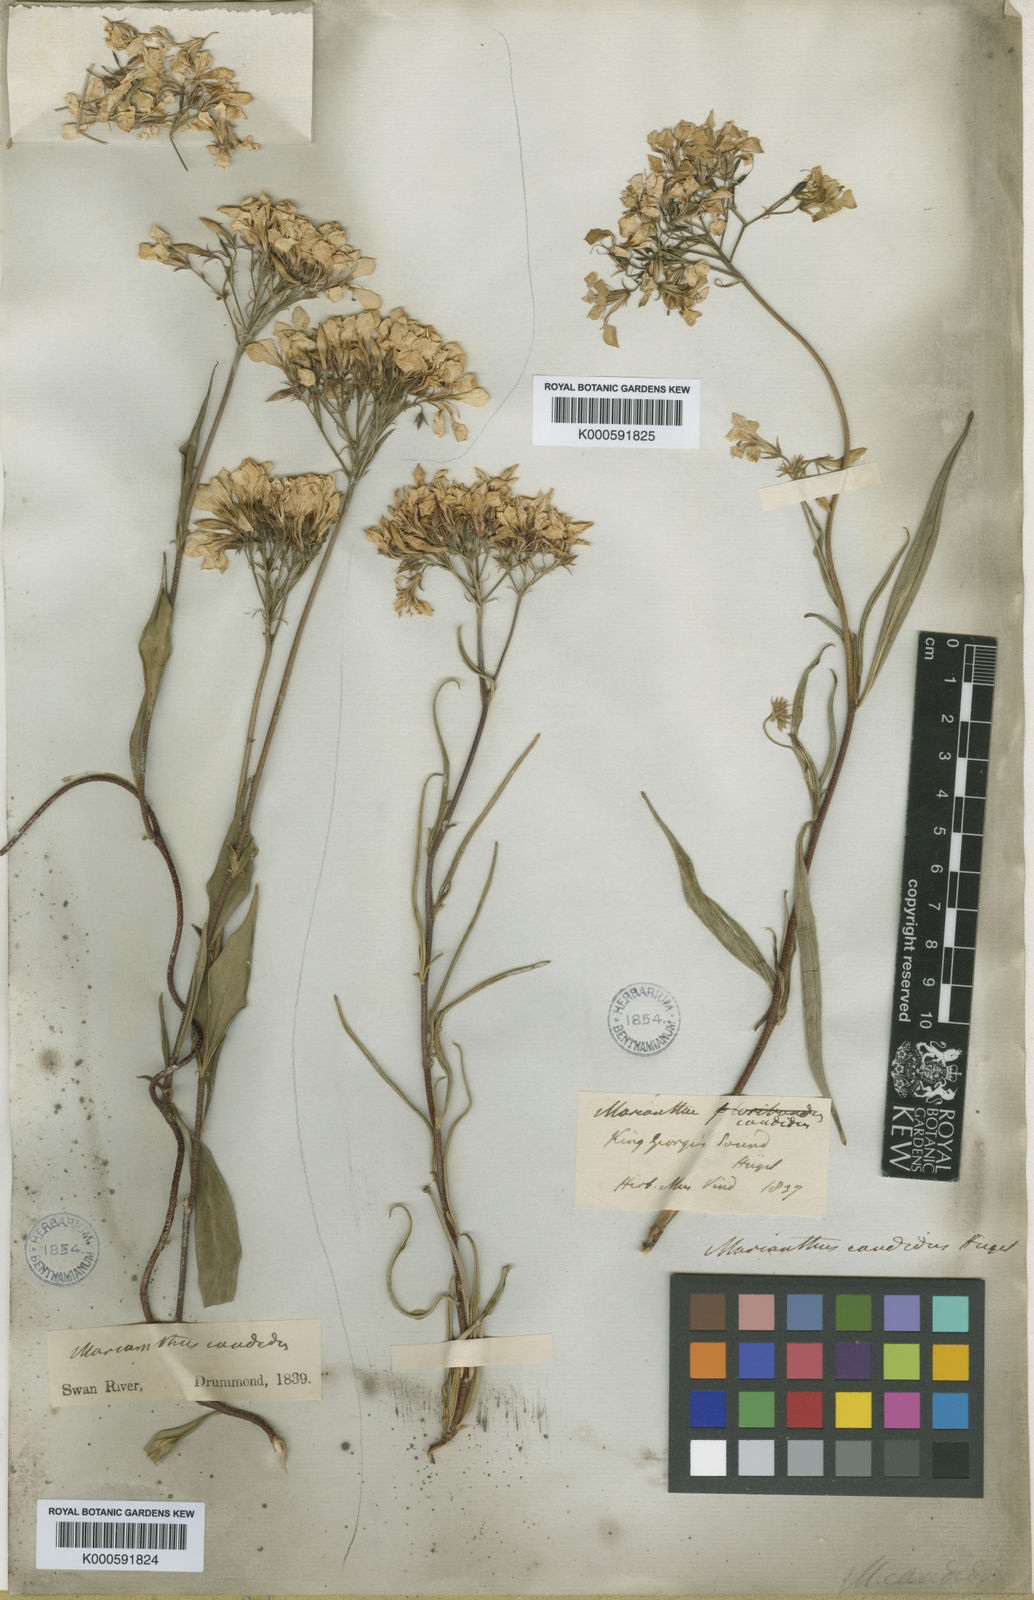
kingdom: Plantae
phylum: Tracheophyta
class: Magnoliopsida
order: Apiales
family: Pittosporaceae
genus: Marianthus
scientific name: Marianthus
